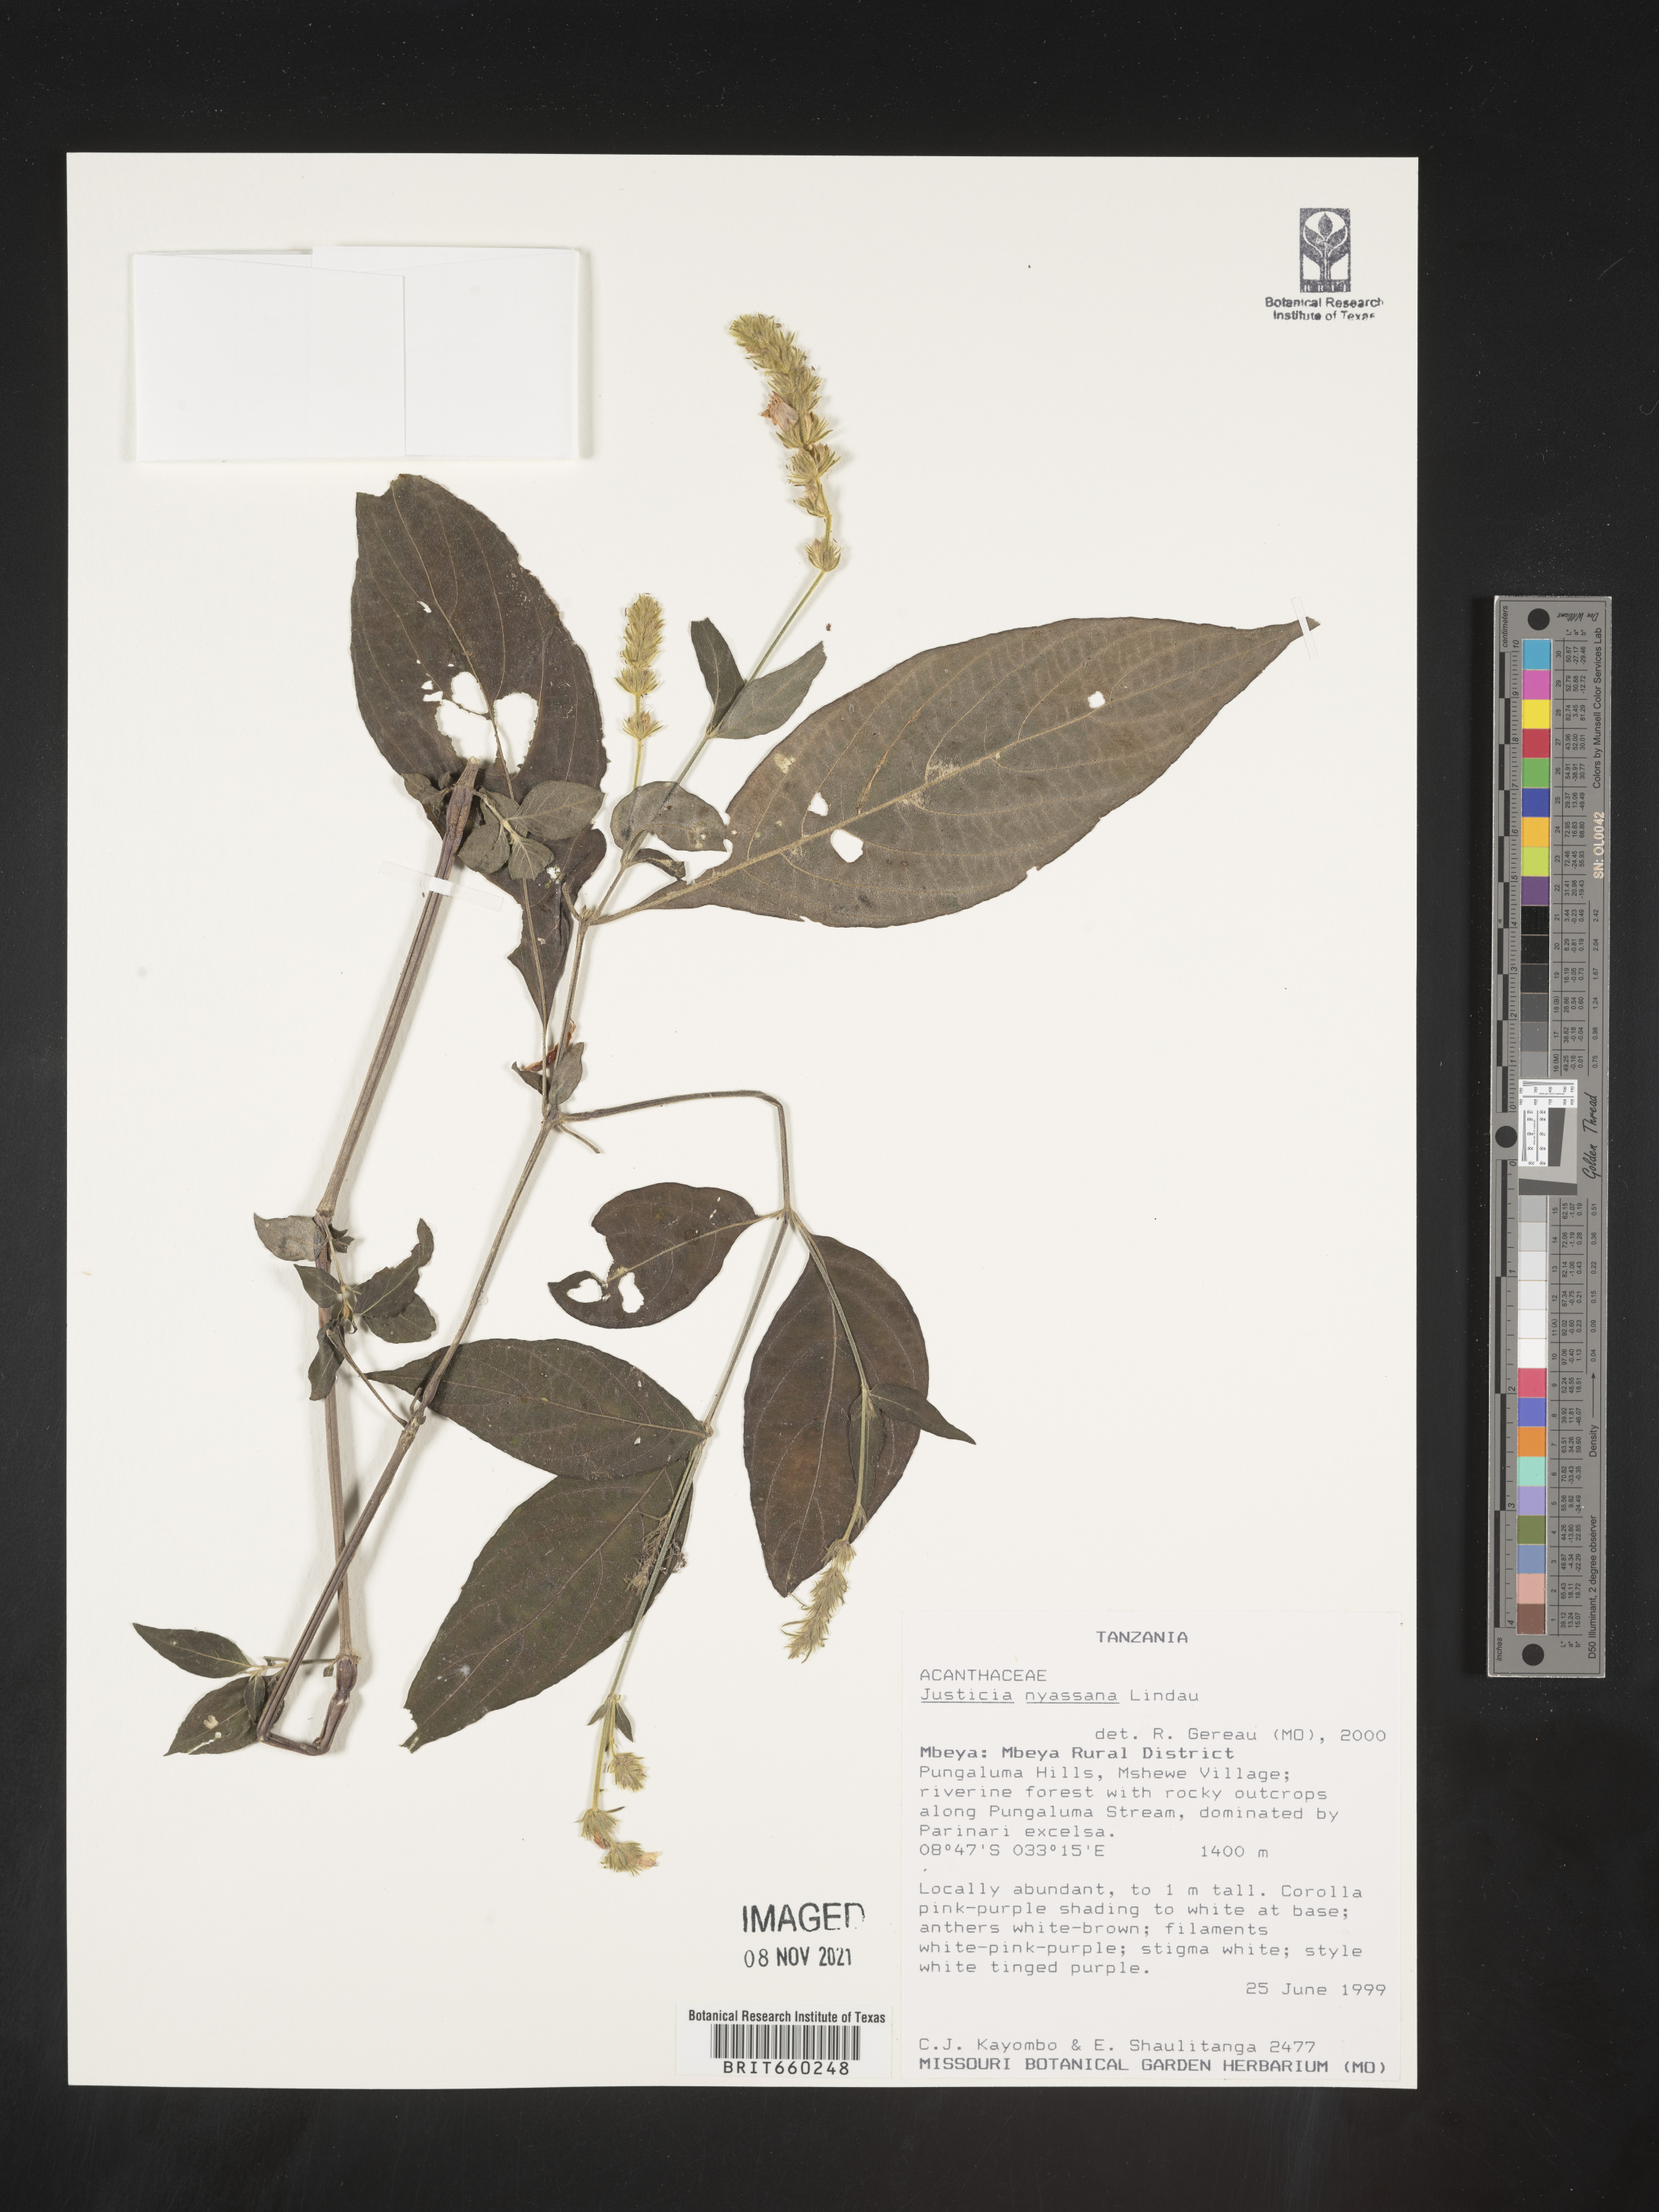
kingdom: Plantae
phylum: Tracheophyta
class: Magnoliopsida
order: Lamiales
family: Acanthaceae
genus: Justicia
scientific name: Justicia nyassana
